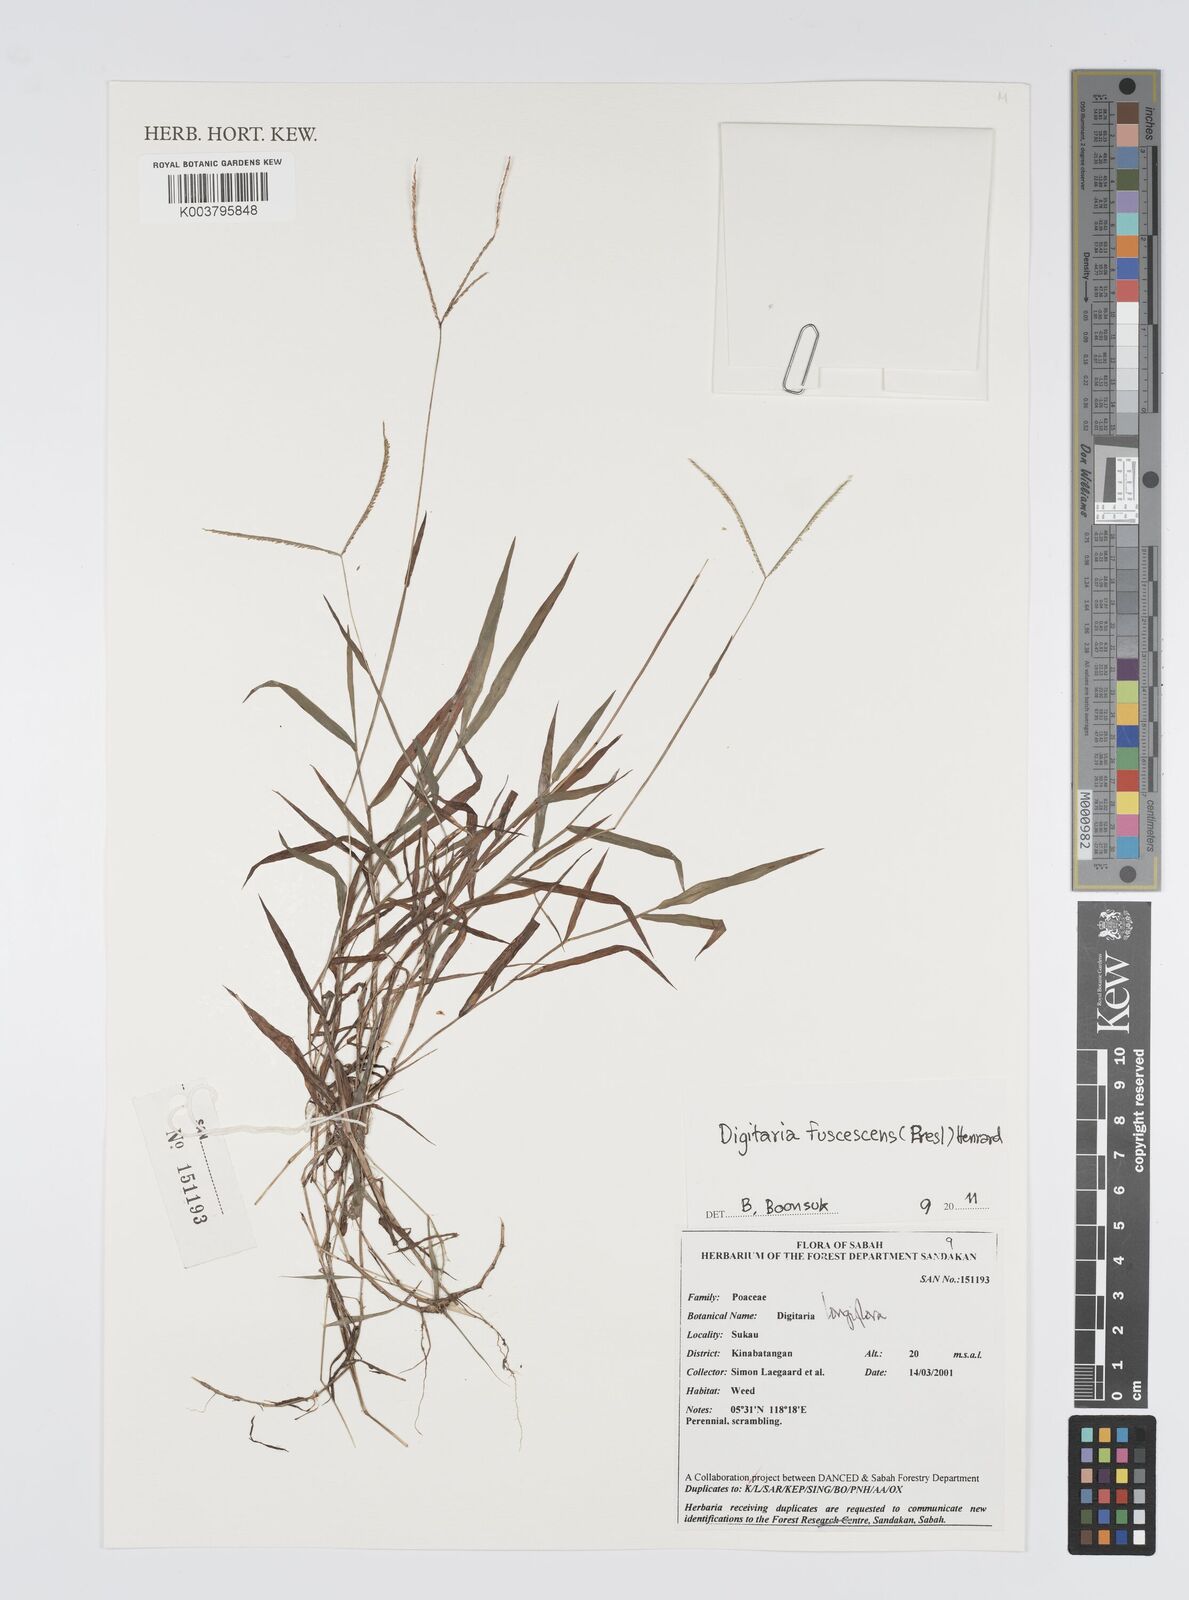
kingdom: Plantae
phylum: Tracheophyta
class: Liliopsida
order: Poales
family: Poaceae
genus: Digitaria
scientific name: Digitaria fuscescens
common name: Yellow crabgrass
